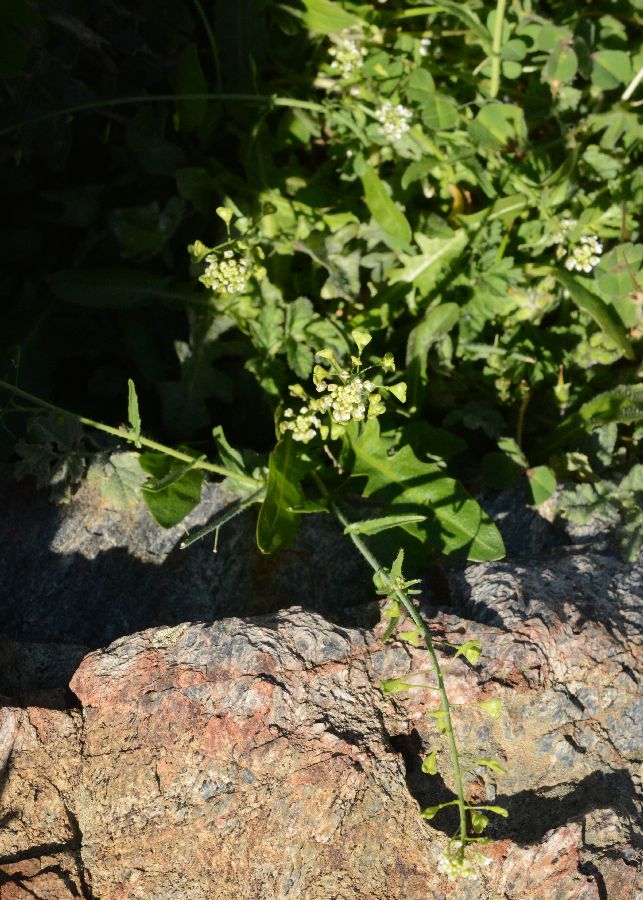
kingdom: Plantae
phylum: Tracheophyta
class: Magnoliopsida
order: Brassicales
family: Brassicaceae
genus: Capsella
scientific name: Capsella bursa-pastoris
